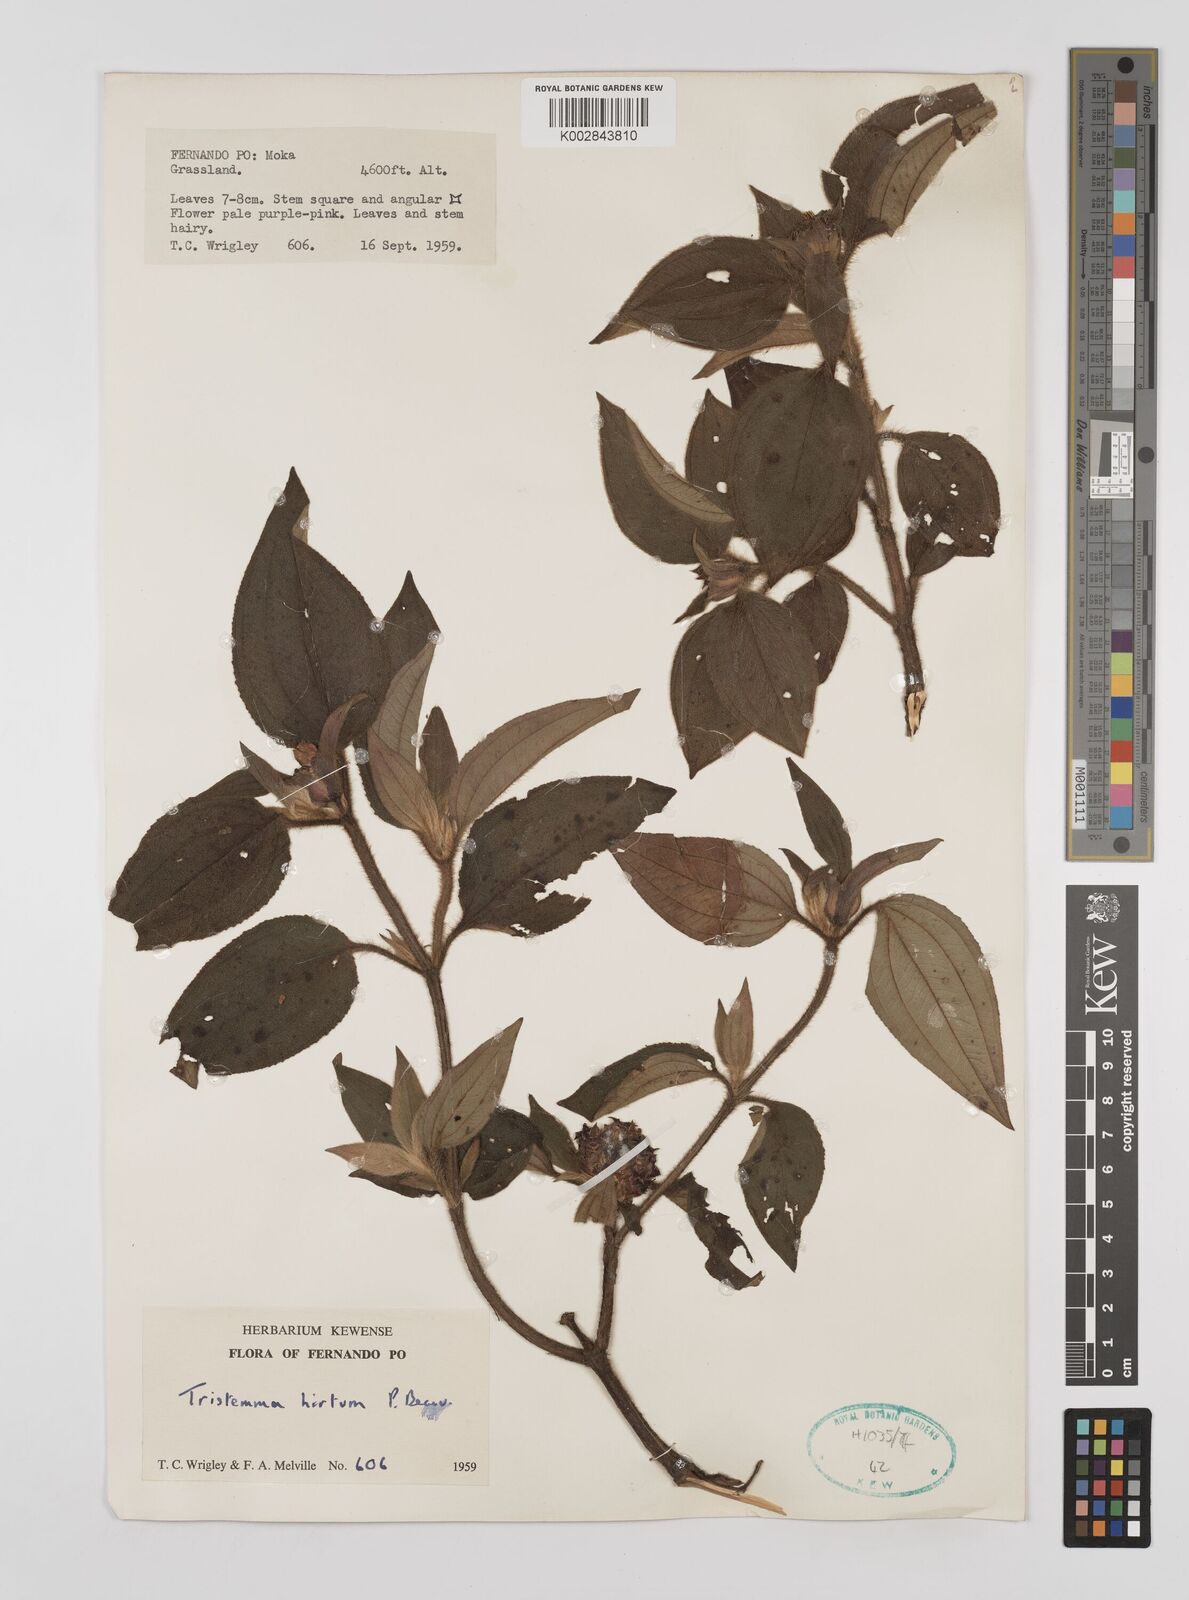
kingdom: Plantae
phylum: Tracheophyta
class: Magnoliopsida
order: Myrtales
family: Melastomataceae
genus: Tristemma
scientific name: Tristemma hirtum
